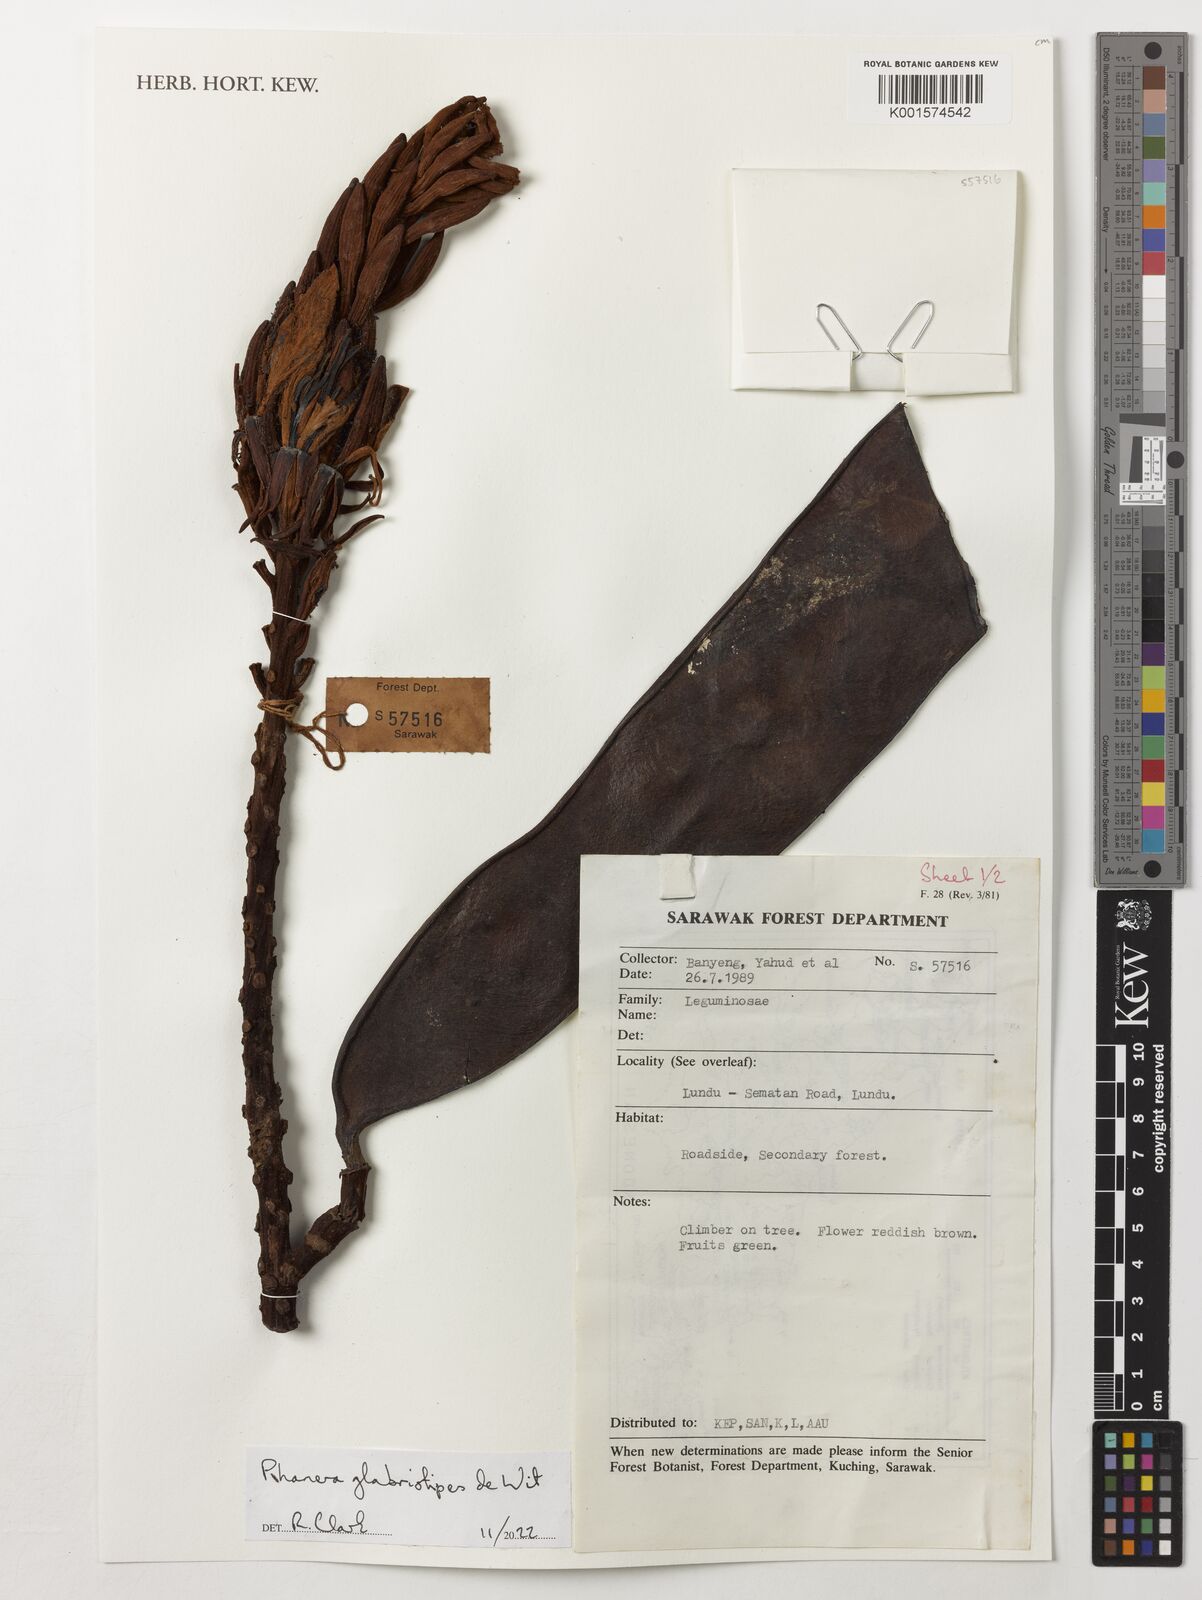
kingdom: Plantae
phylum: Tracheophyta
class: Magnoliopsida
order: Fabales
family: Fabaceae
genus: Phanera
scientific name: Phanera glabristipes
